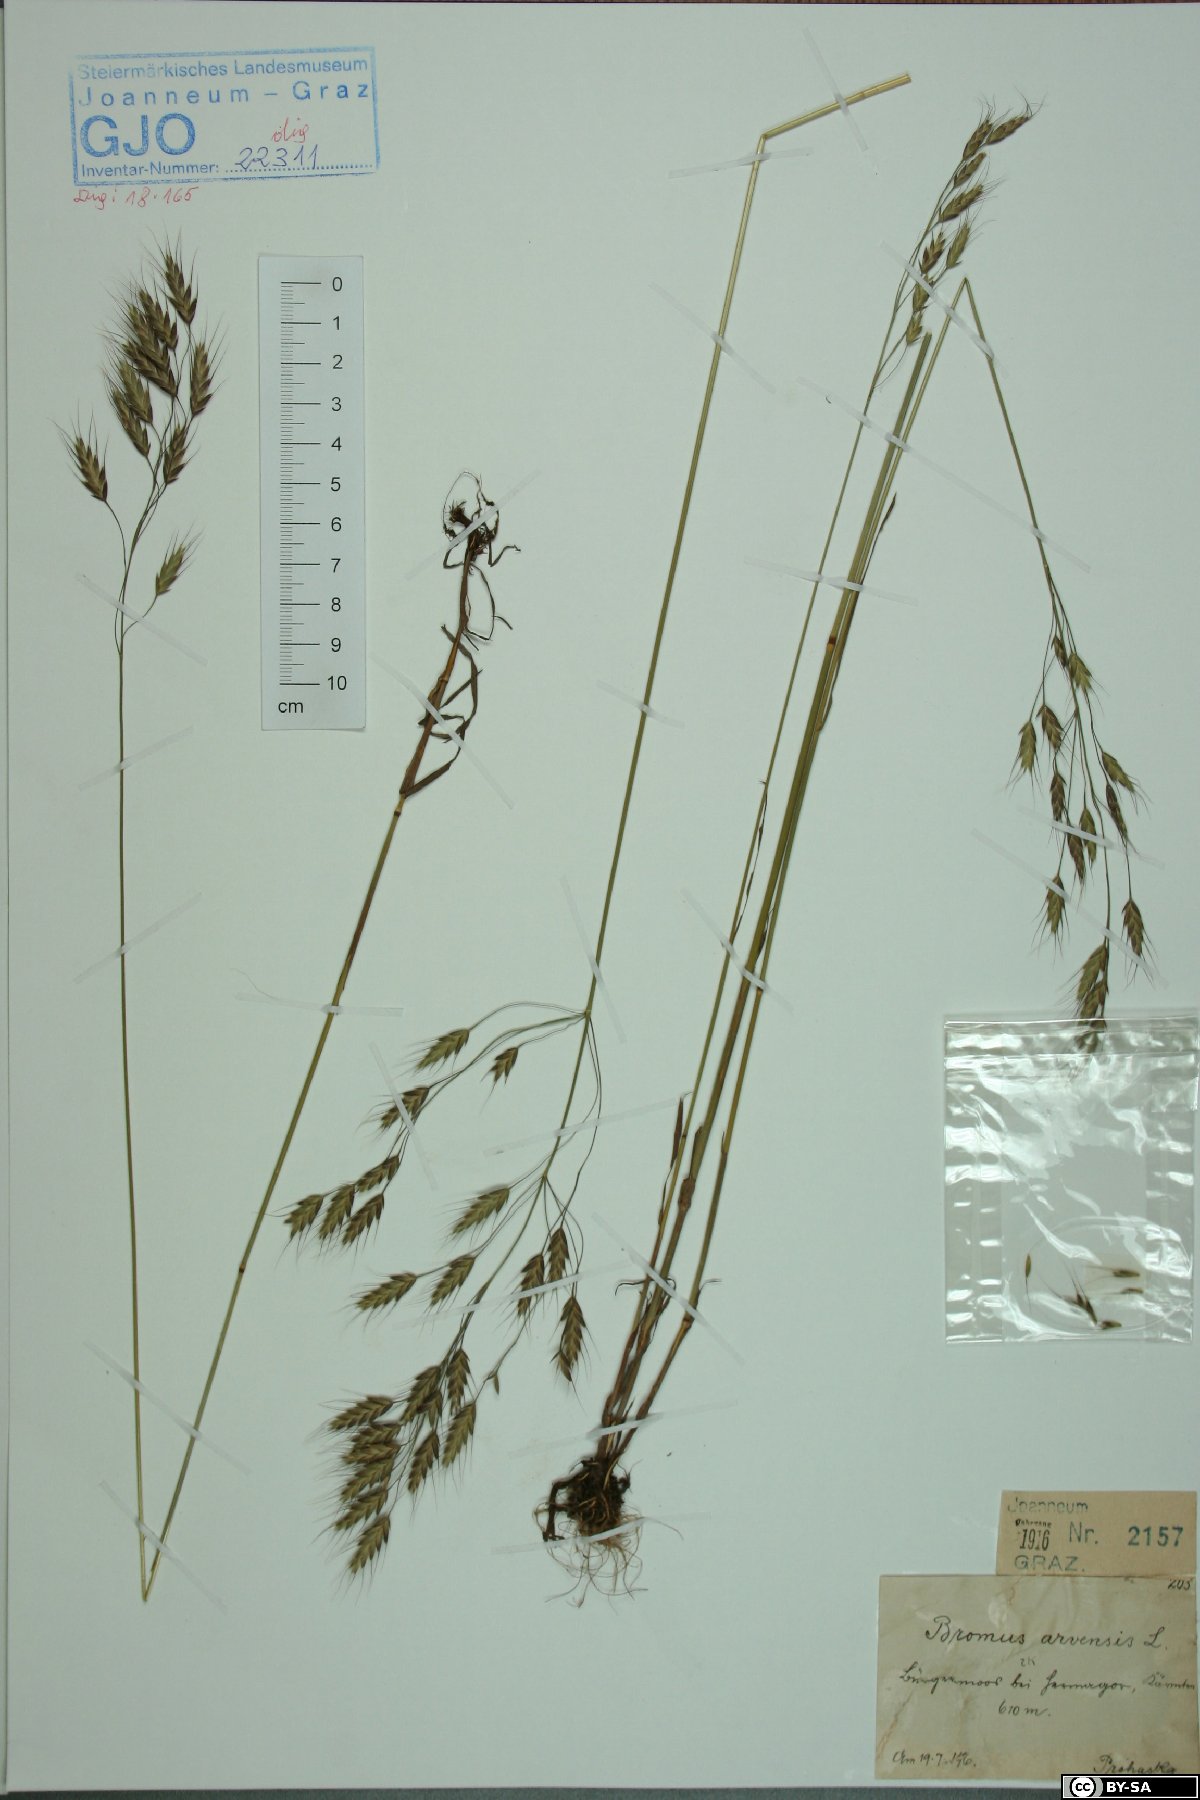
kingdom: Plantae
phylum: Tracheophyta
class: Liliopsida
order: Poales
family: Poaceae
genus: Bromus
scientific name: Bromus arvensis
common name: Field brome
